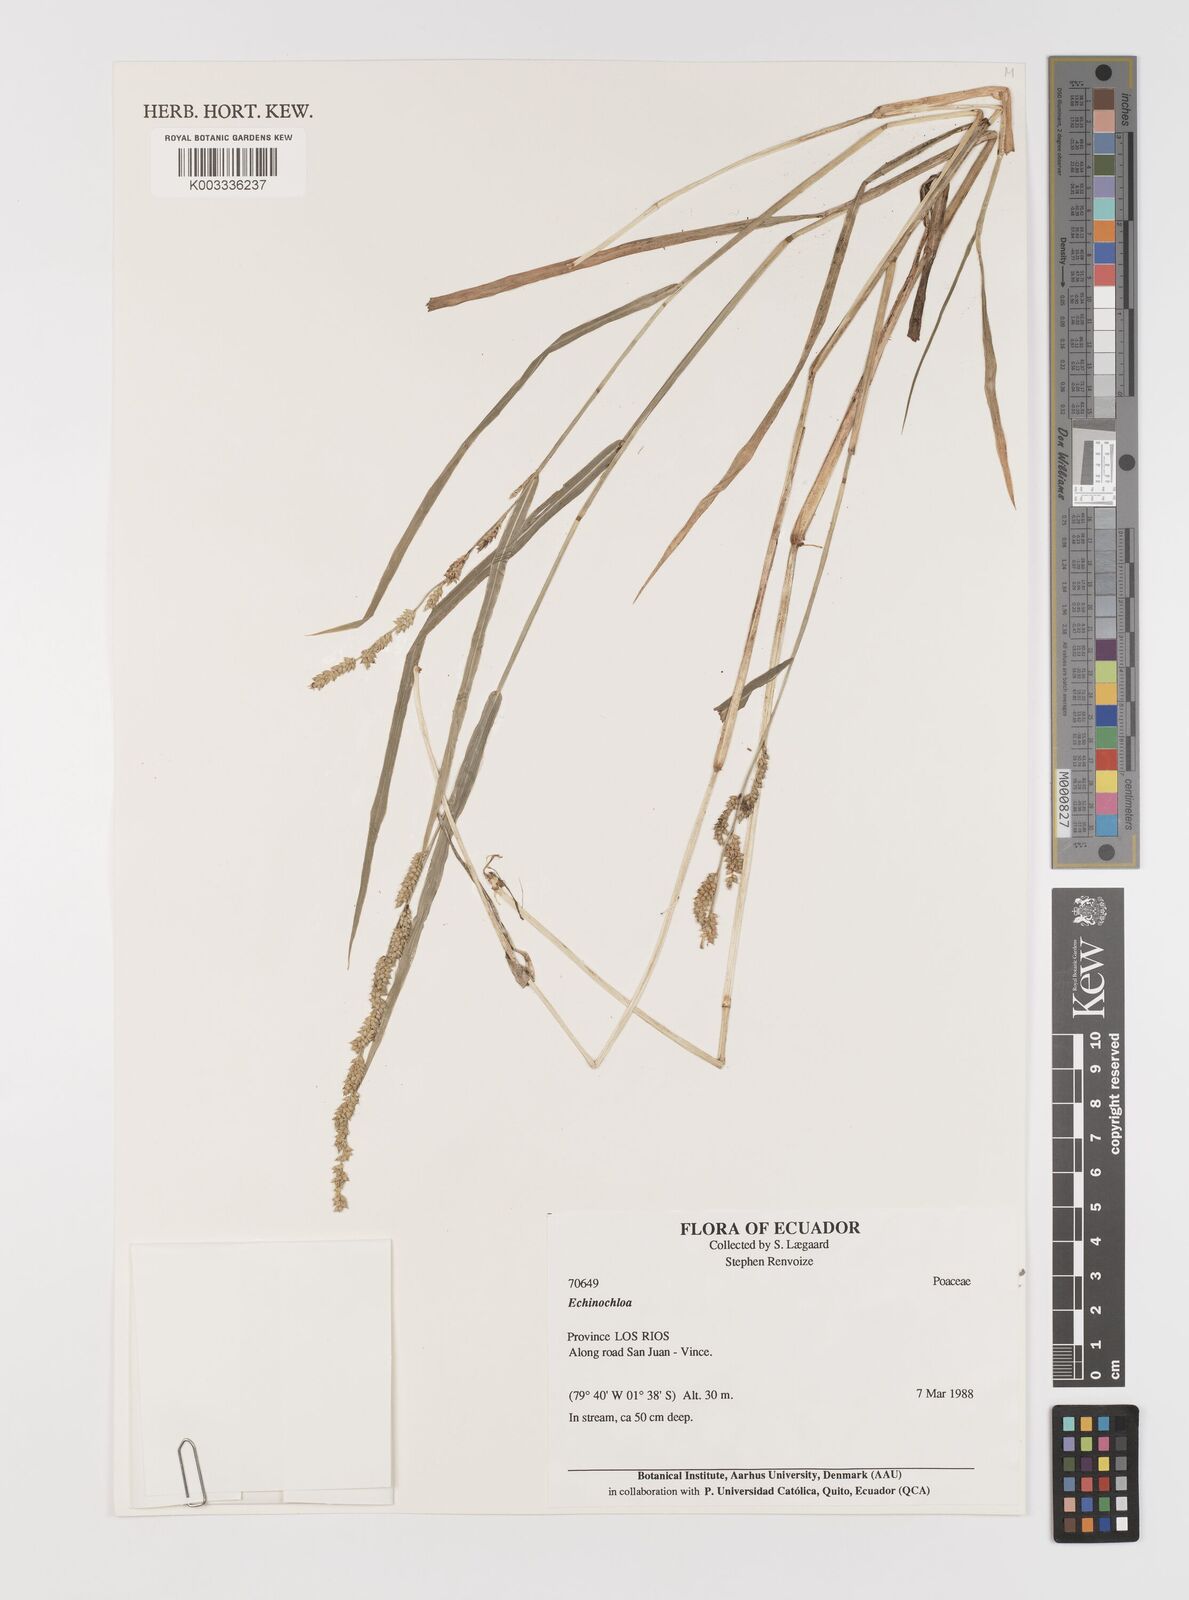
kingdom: Plantae
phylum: Tracheophyta
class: Liliopsida
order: Poales
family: Poaceae
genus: Echinochloa
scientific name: Echinochloa colonum
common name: Jungle rice
